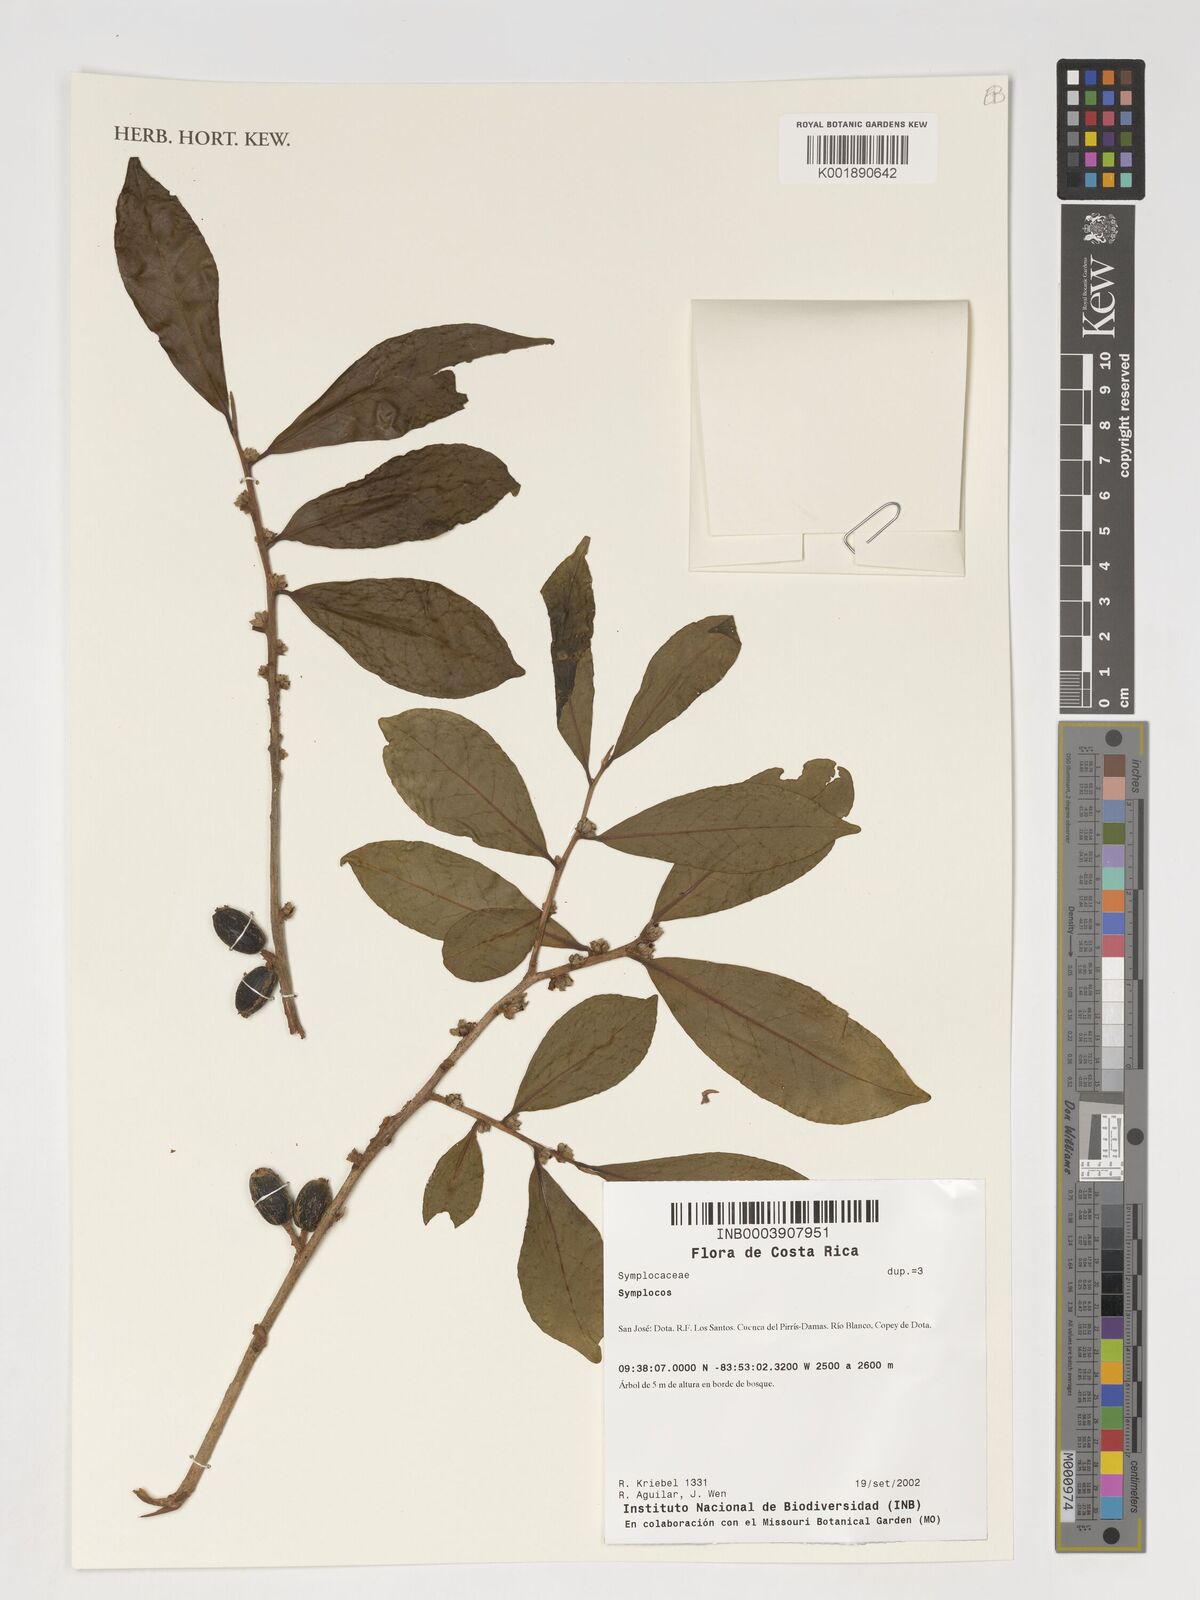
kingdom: Plantae
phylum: Tracheophyta
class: Magnoliopsida
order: Ericales
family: Symplocaceae
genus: Symplocos
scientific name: Symplocos
